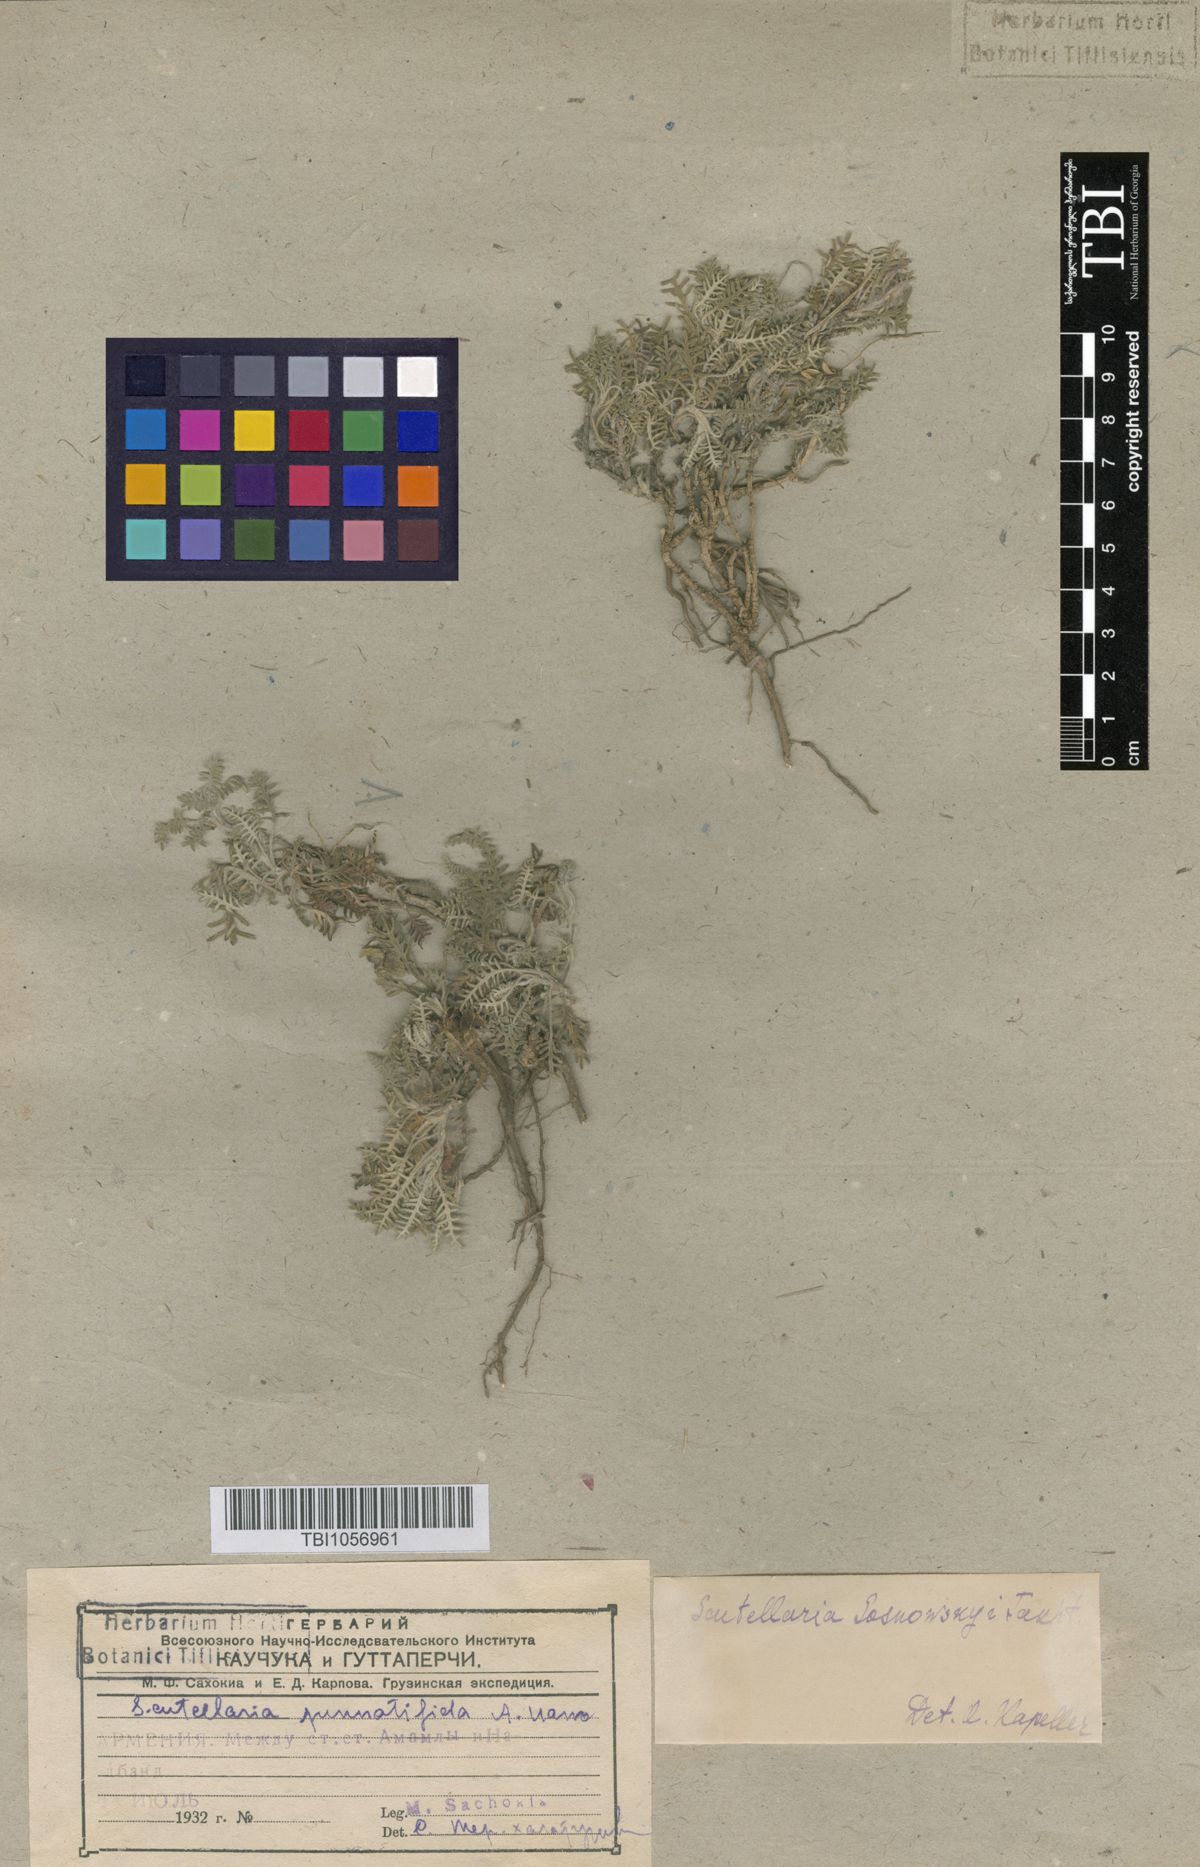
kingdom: Plantae
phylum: Tracheophyta
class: Magnoliopsida
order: Lamiales
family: Lamiaceae
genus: Scutellaria
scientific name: Scutellaria sosnowskyi
